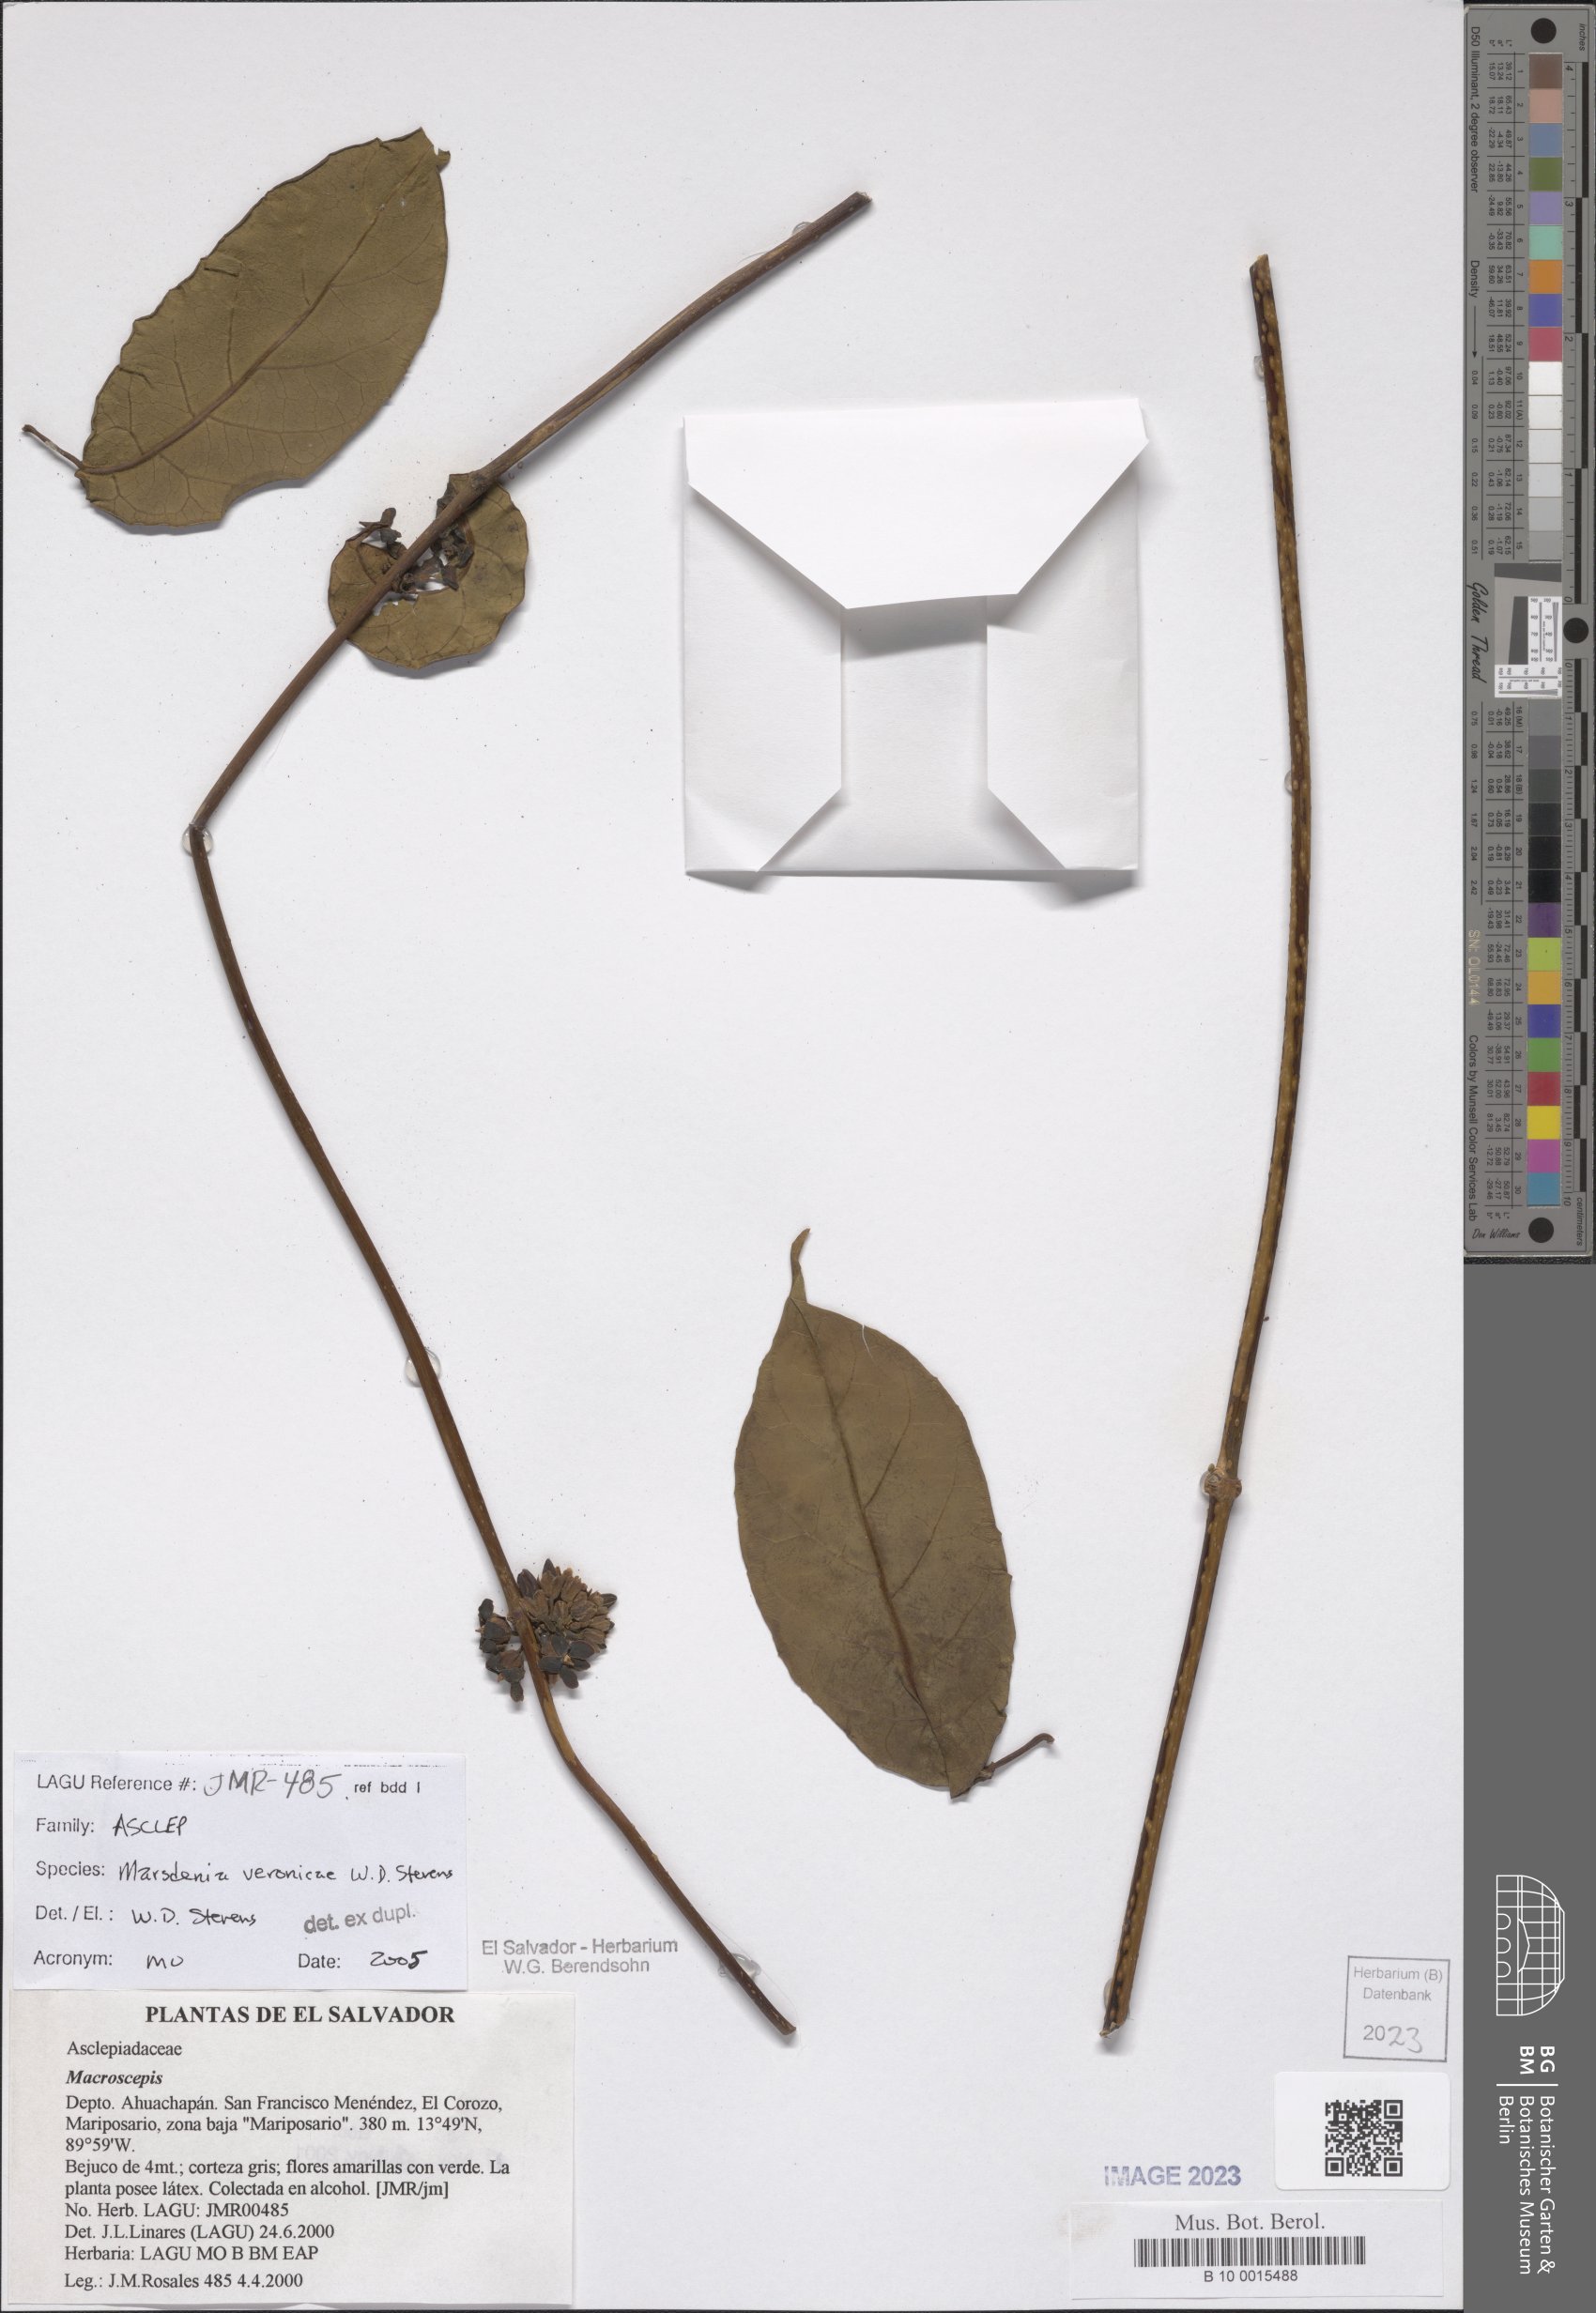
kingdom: Plantae
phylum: Tracheophyta
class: Magnoliopsida
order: Gentianales
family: Apocynaceae
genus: Ruehssia
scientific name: Ruehssia veronicae
